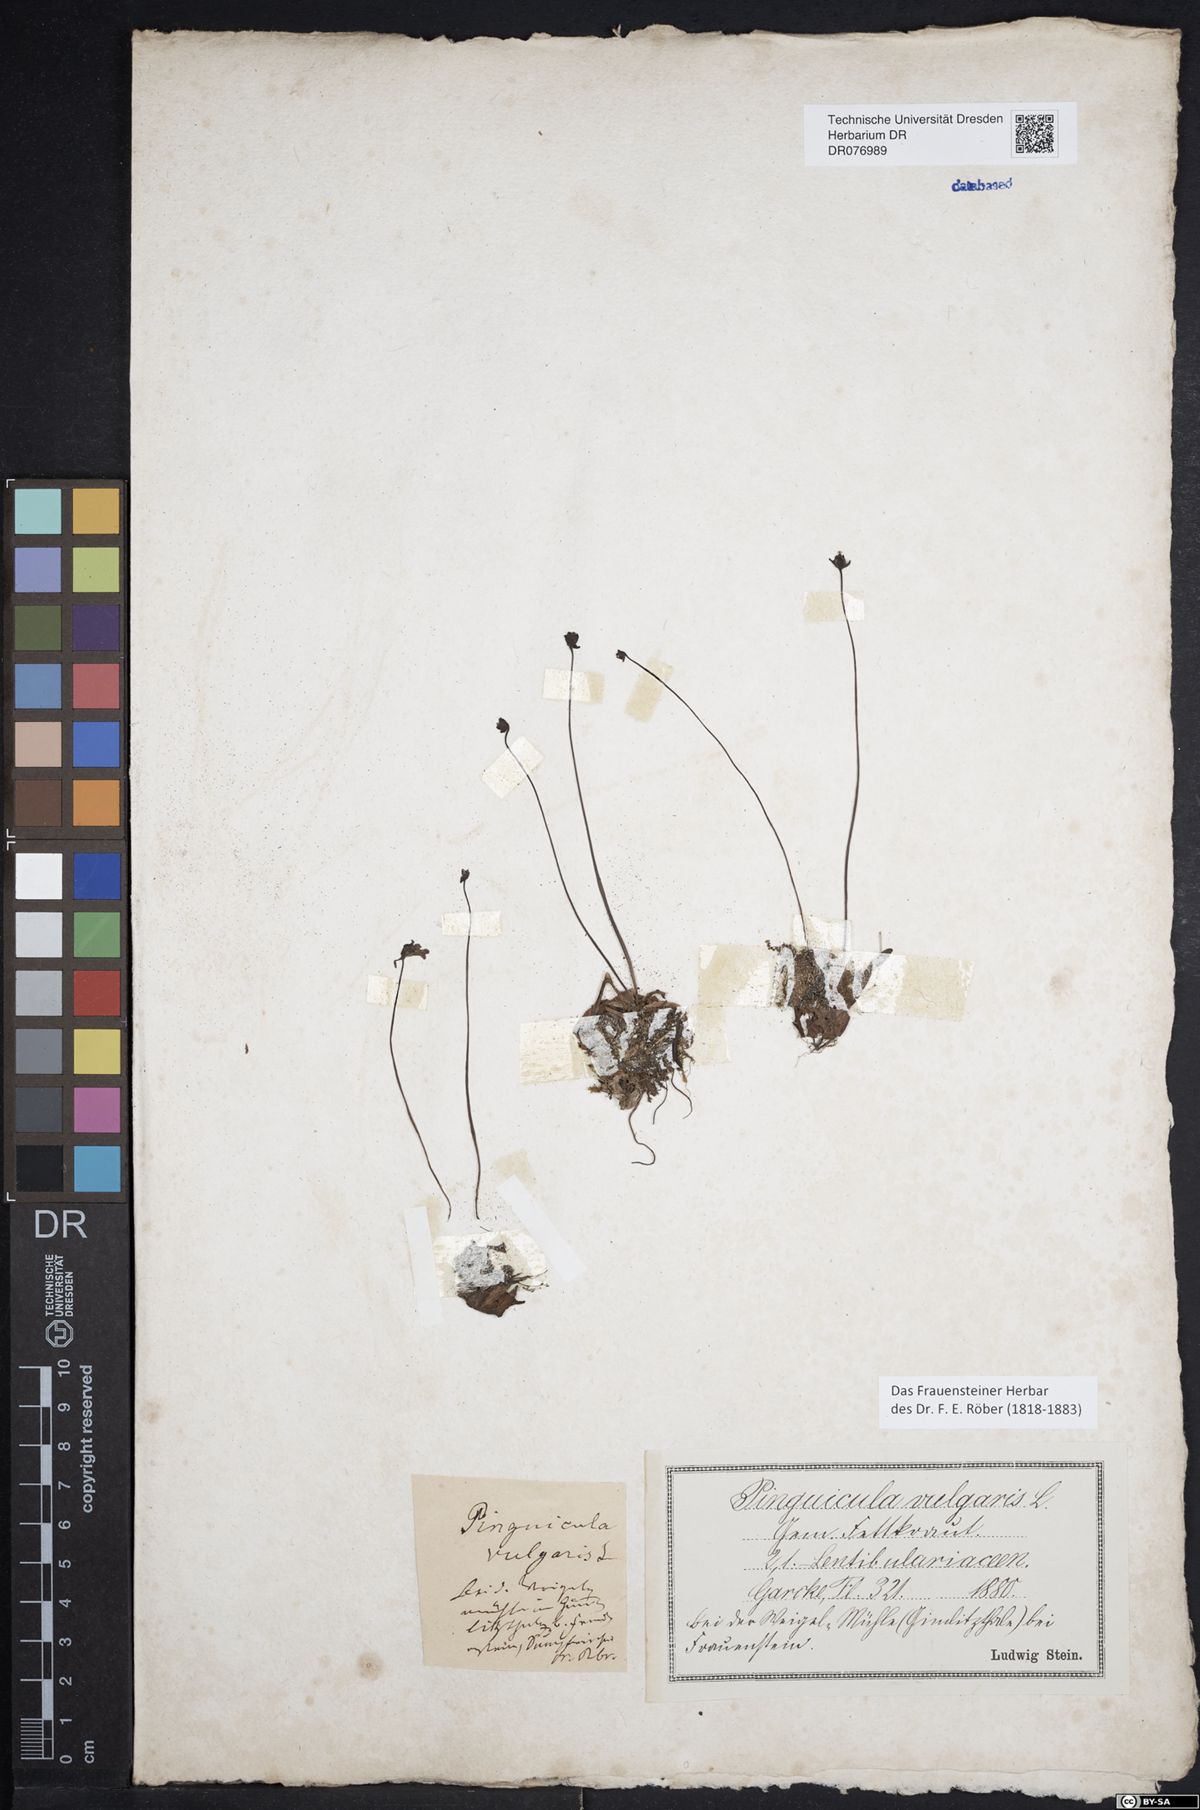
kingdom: Plantae
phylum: Tracheophyta
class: Magnoliopsida
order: Lamiales
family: Lentibulariaceae
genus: Pinguicula
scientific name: Pinguicula vulgaris
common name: Common butterwort
